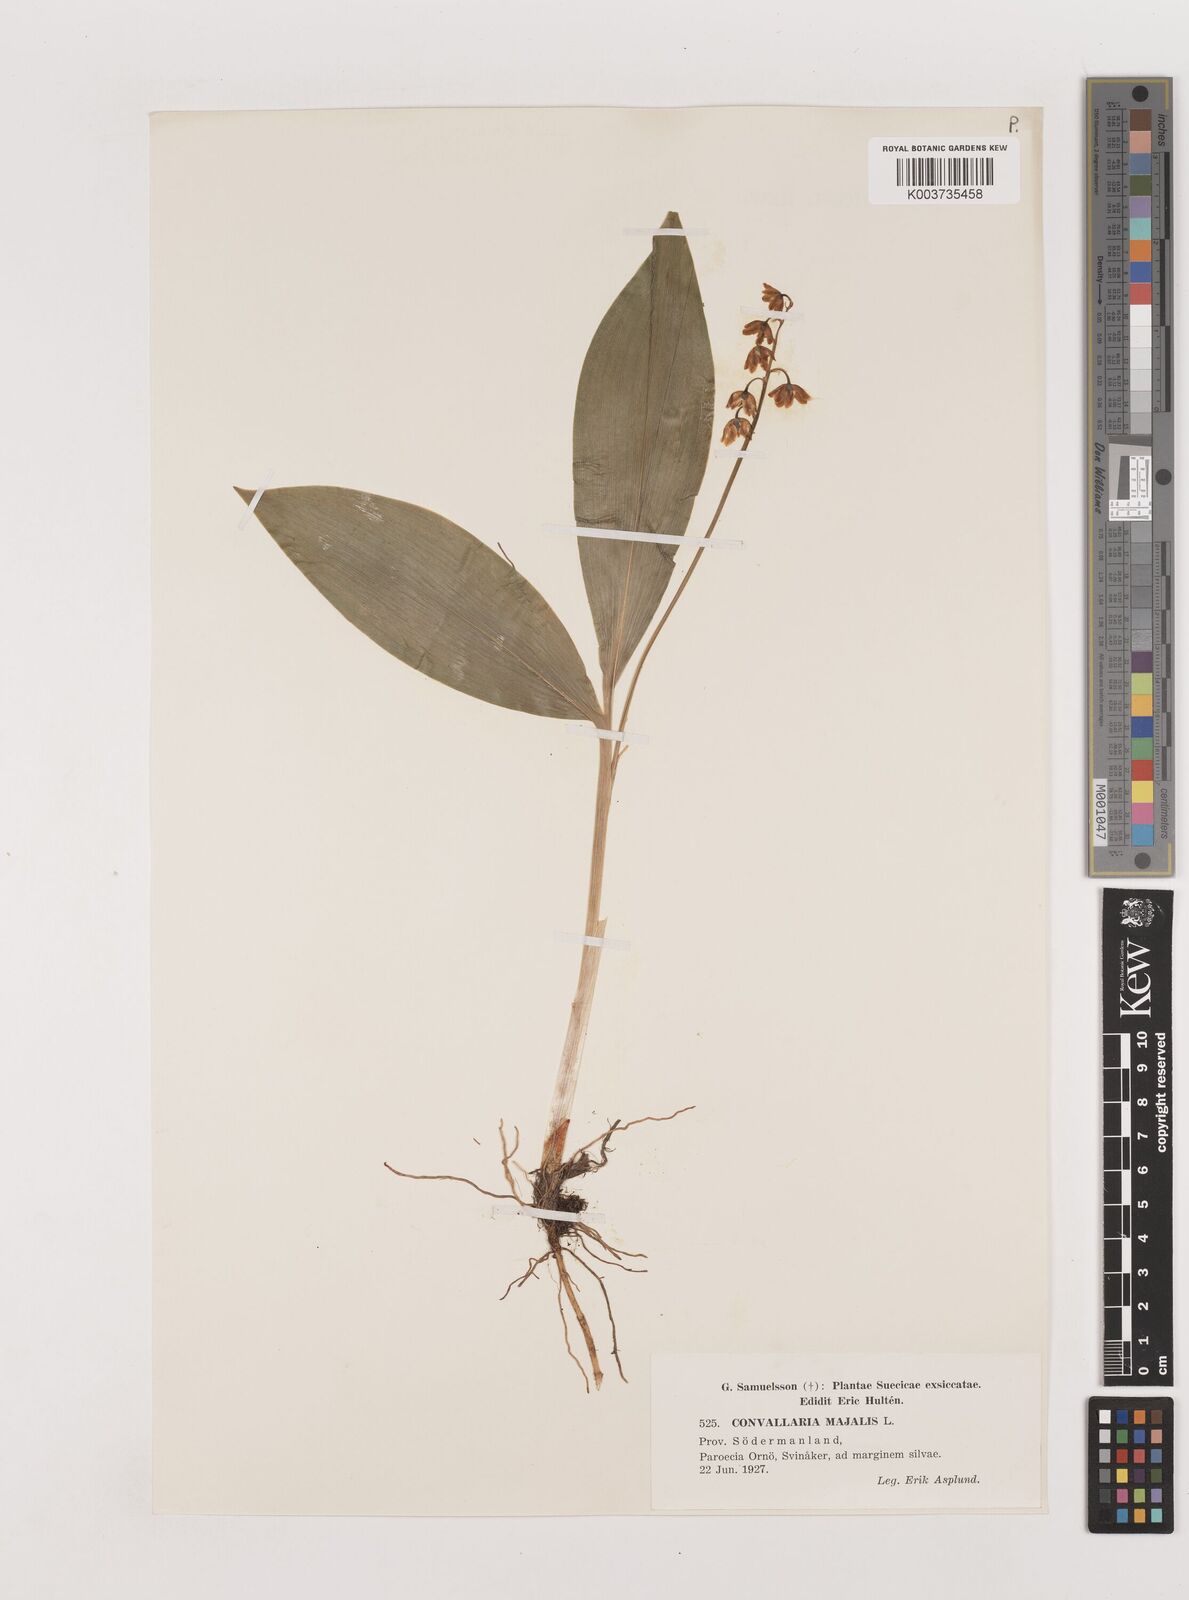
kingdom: Plantae
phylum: Tracheophyta
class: Liliopsida
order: Asparagales
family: Asparagaceae
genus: Convallaria
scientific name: Convallaria majalis
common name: Lily-of-the-valley
